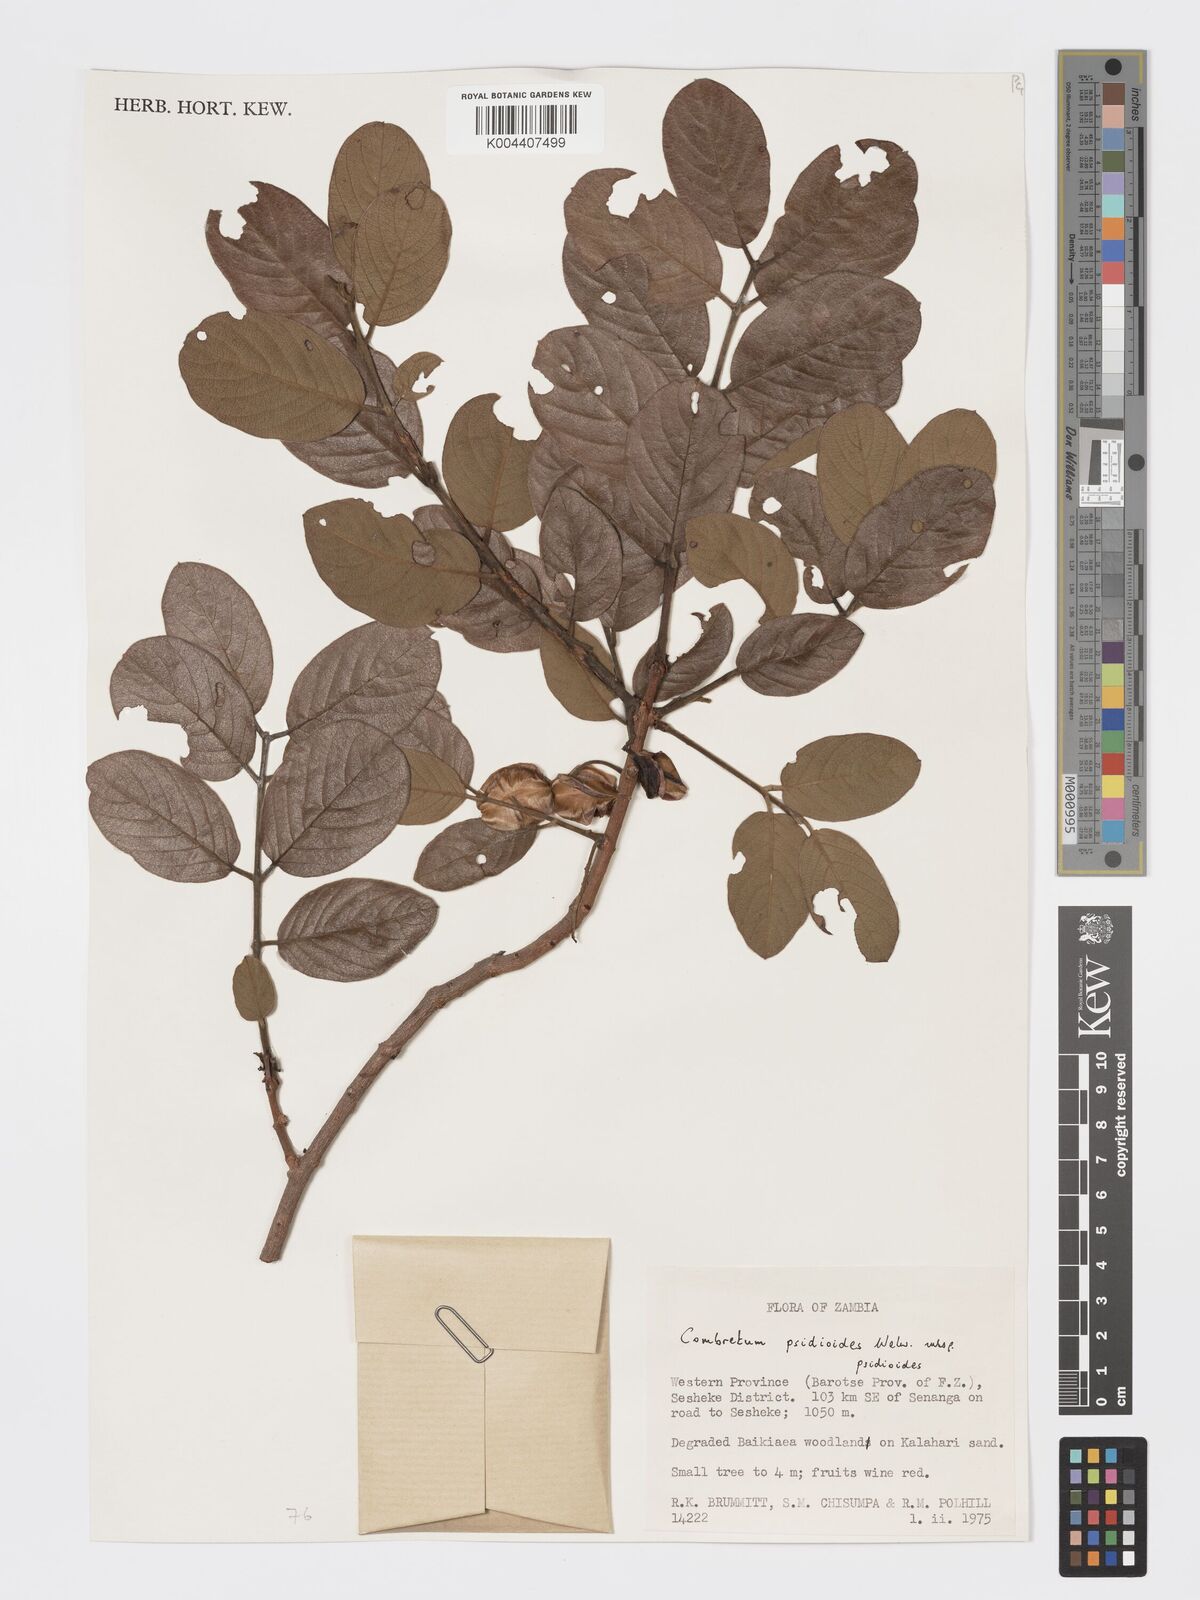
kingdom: Plantae
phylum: Tracheophyta
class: Magnoliopsida
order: Myrtales
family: Combretaceae
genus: Combretum
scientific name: Combretum psidioides
